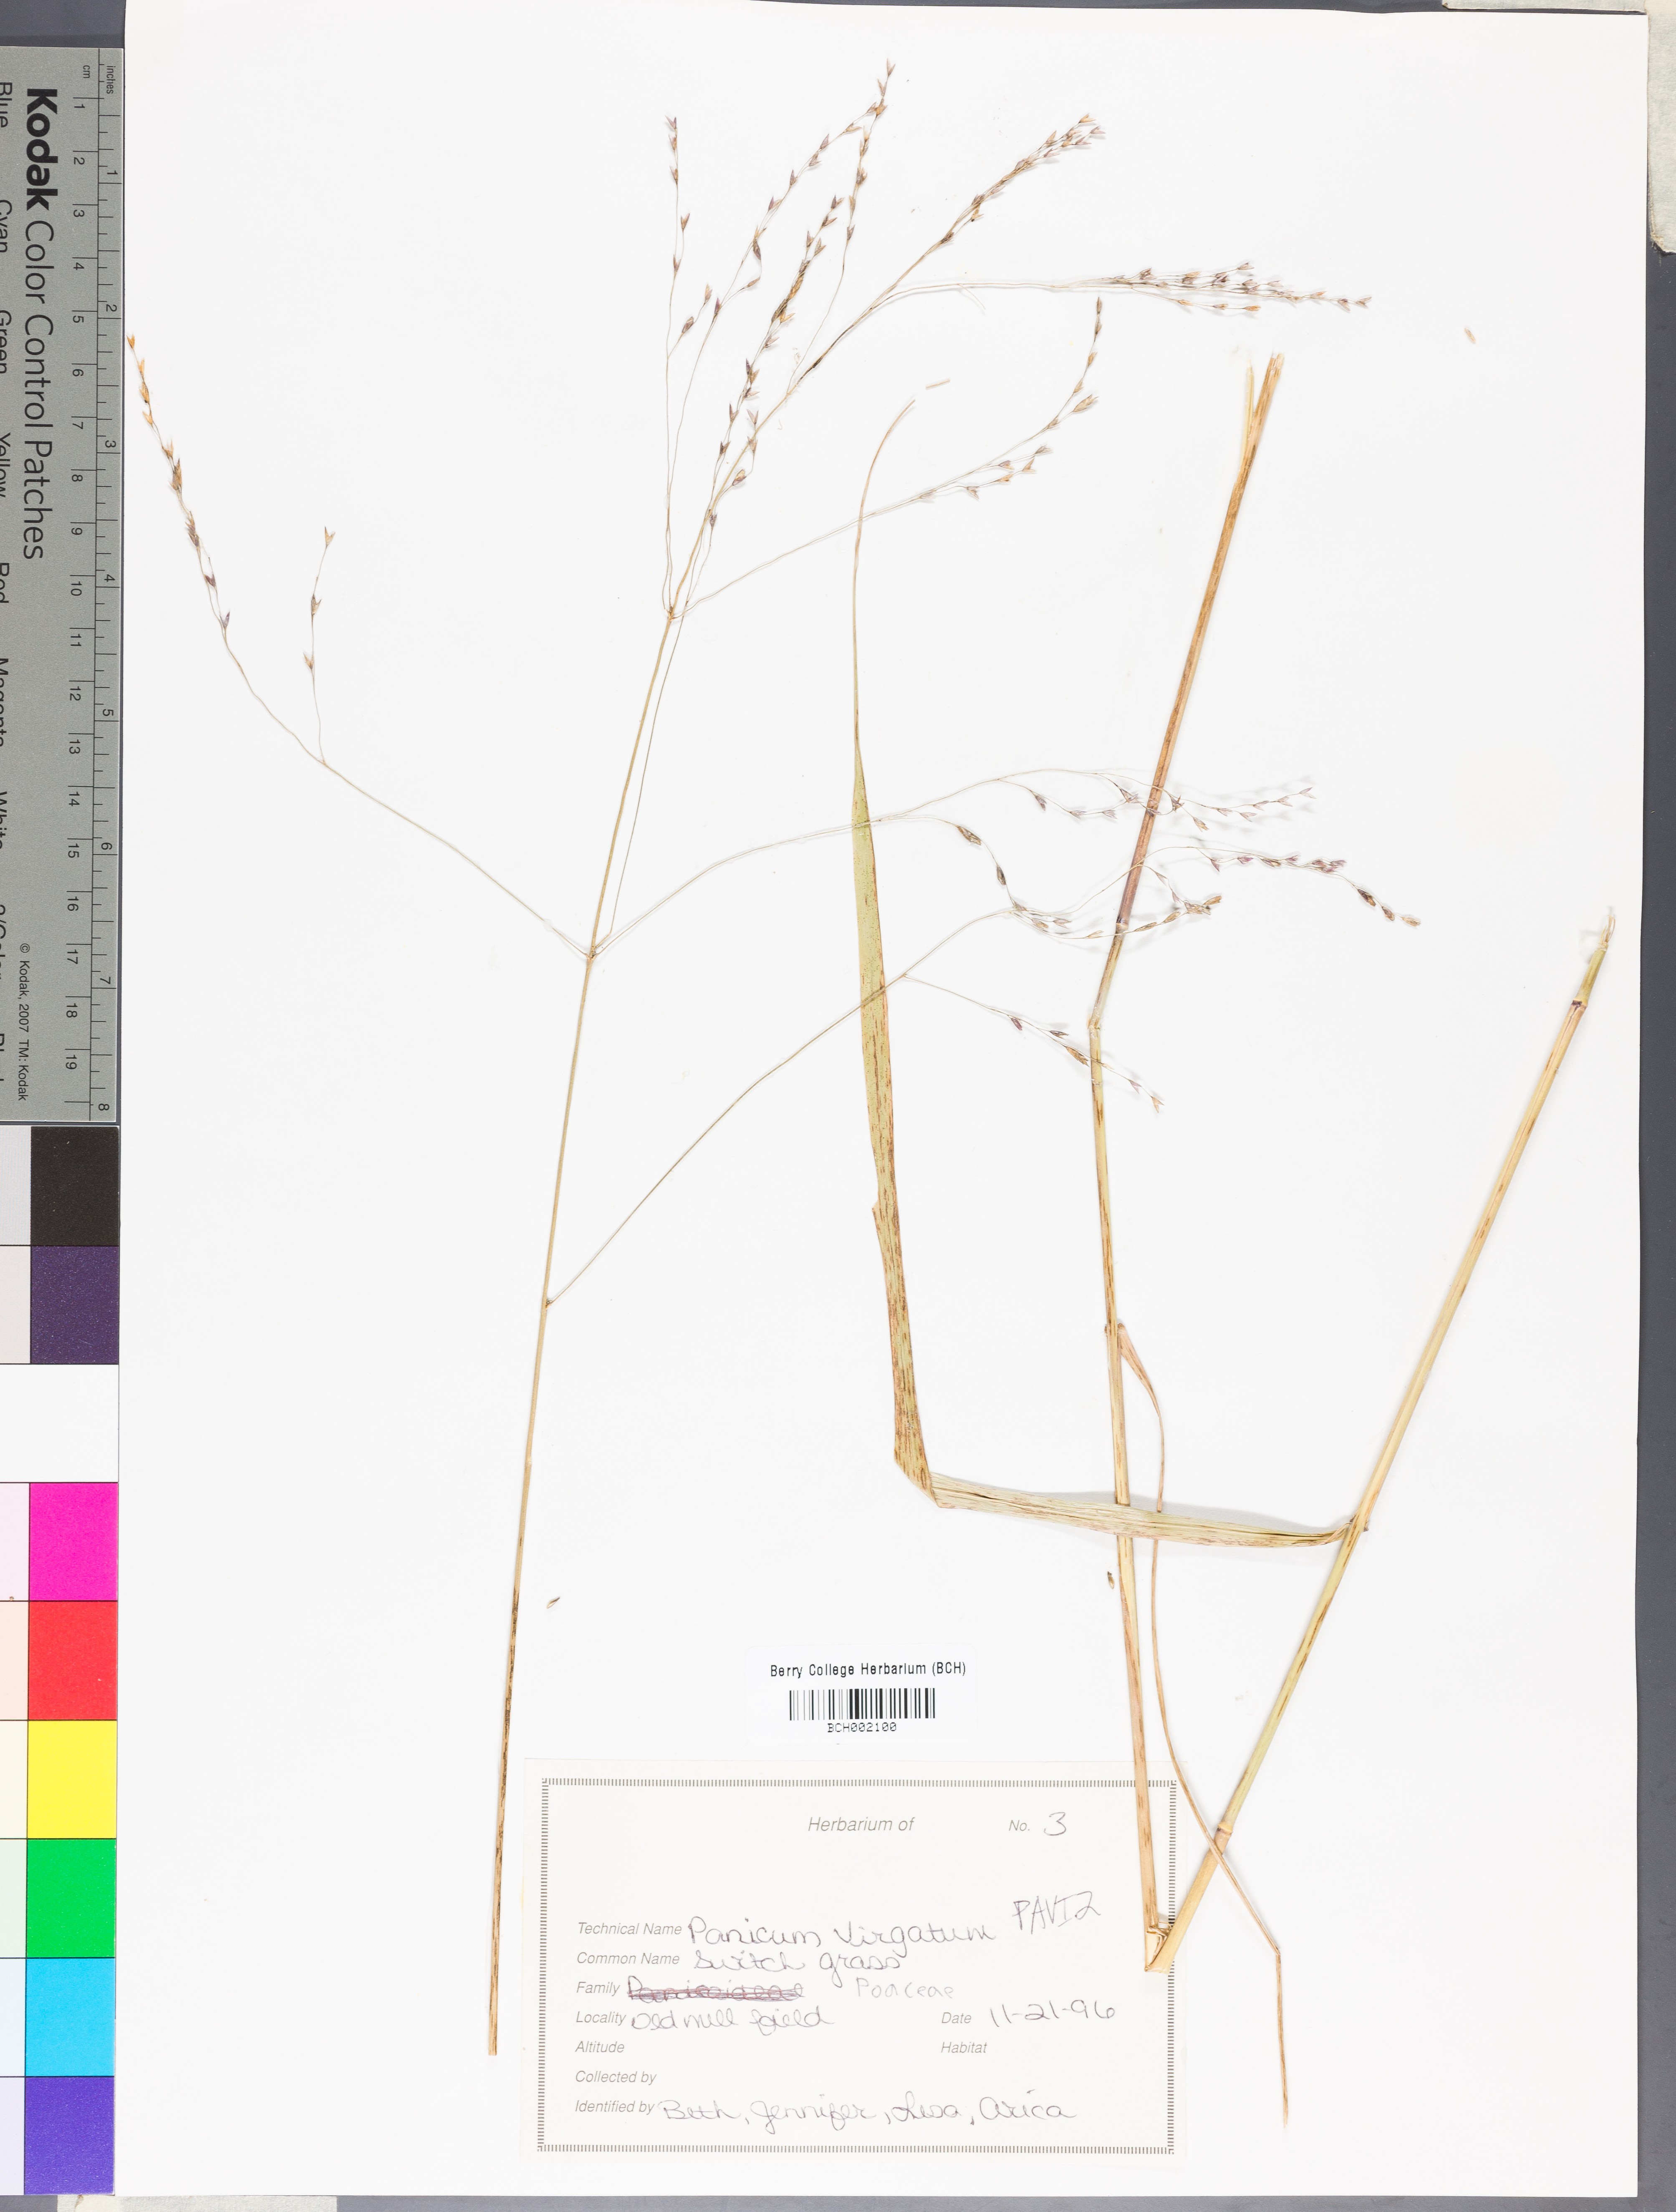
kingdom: Plantae
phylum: Tracheophyta
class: Liliopsida
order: Poales
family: Poaceae
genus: Panicum
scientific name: Panicum virgatum
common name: Switchgrass
